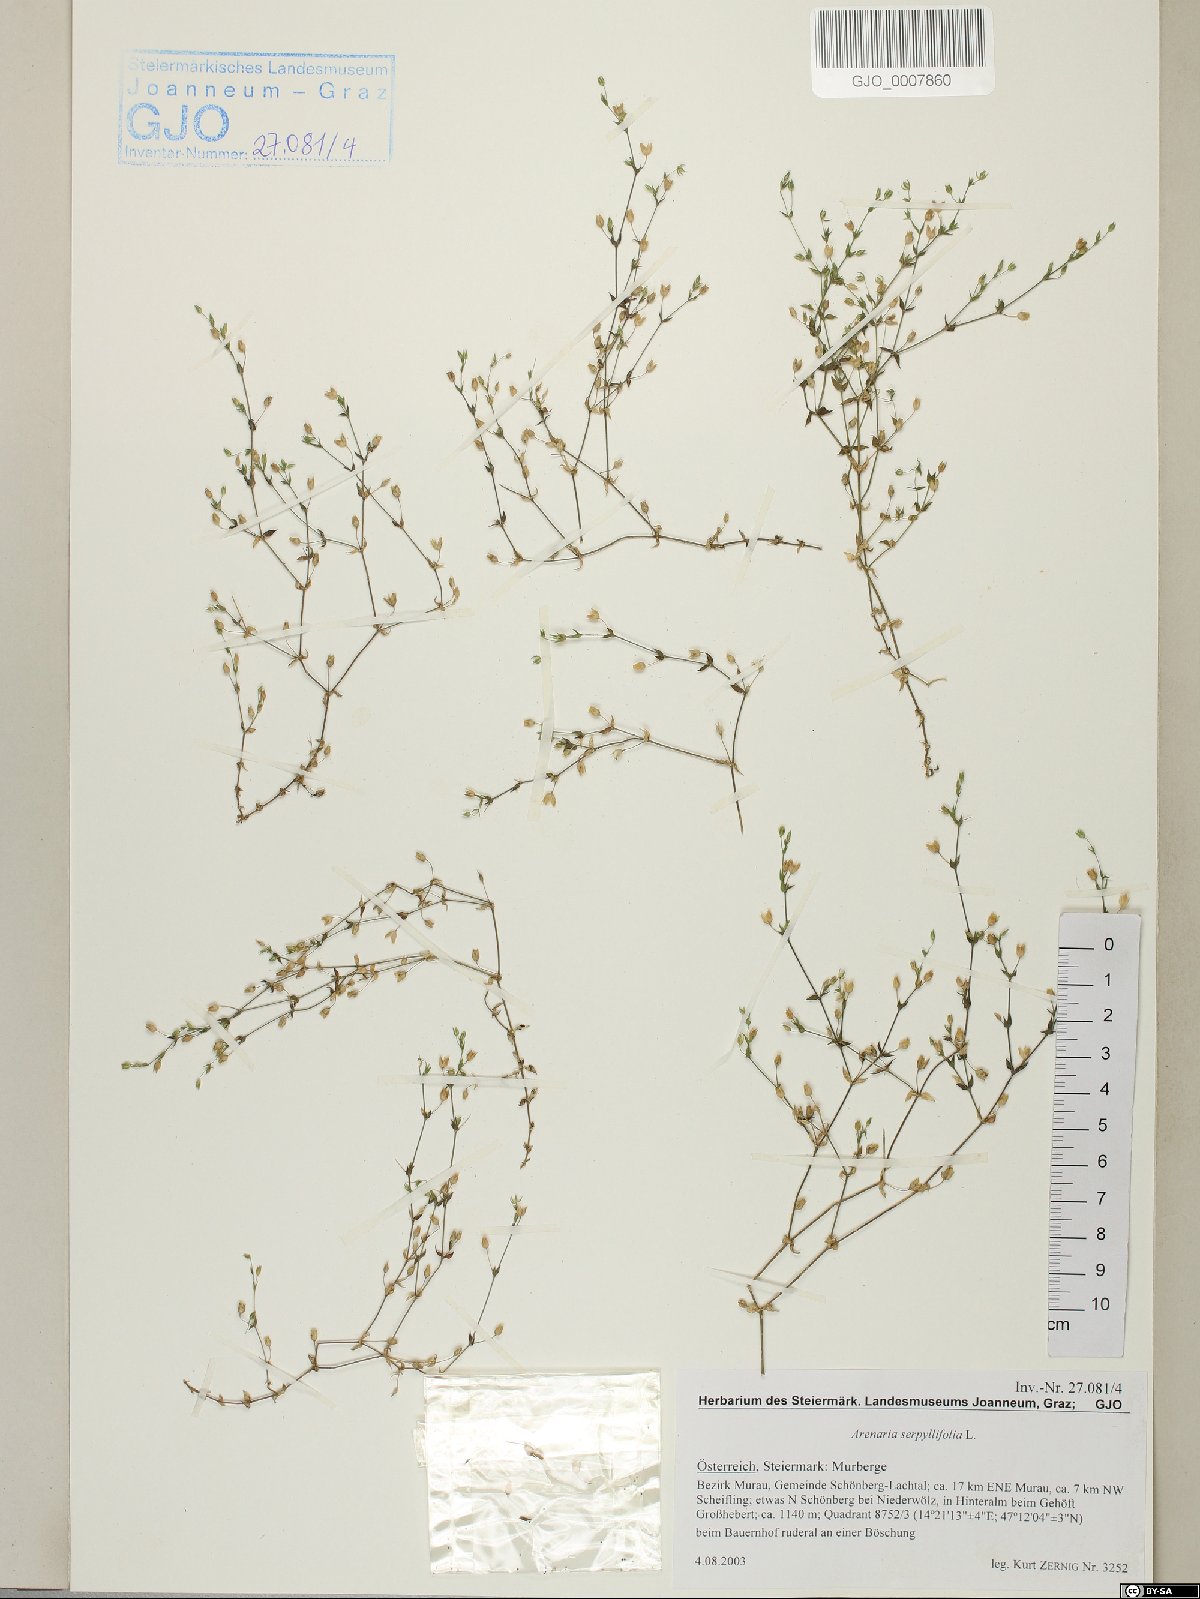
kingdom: Plantae
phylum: Tracheophyta
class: Magnoliopsida
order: Caryophyllales
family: Caryophyllaceae
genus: Arenaria
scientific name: Arenaria serpyllifolia
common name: Thyme-leaved sandwort
